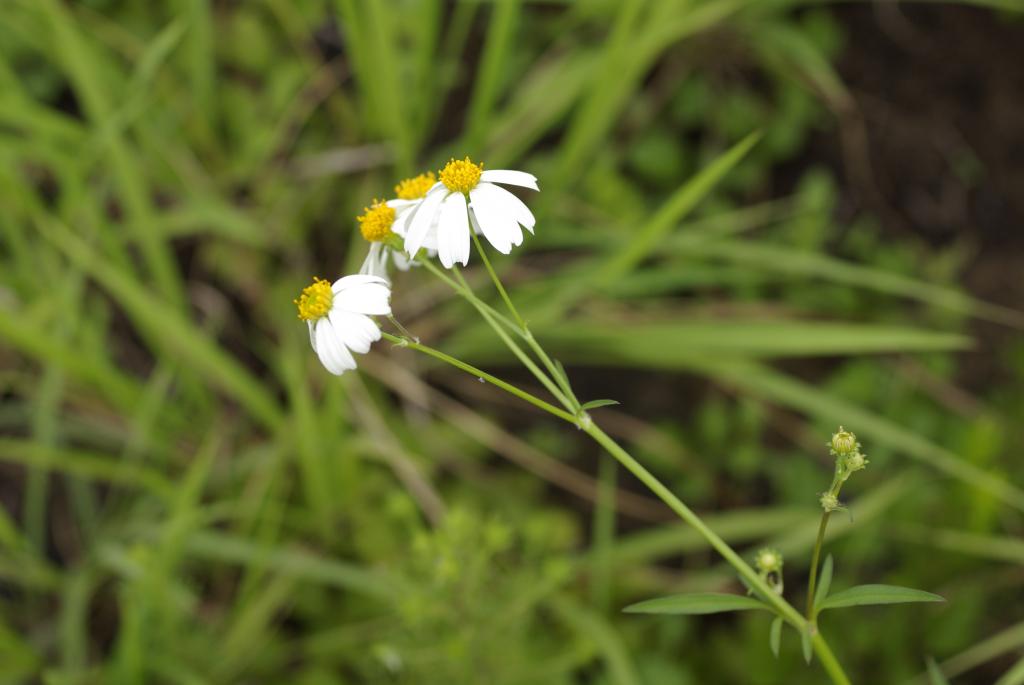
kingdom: Plantae
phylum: Tracheophyta
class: Magnoliopsida
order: Asterales
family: Asteraceae
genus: Bidens
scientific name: Bidens pilosa
